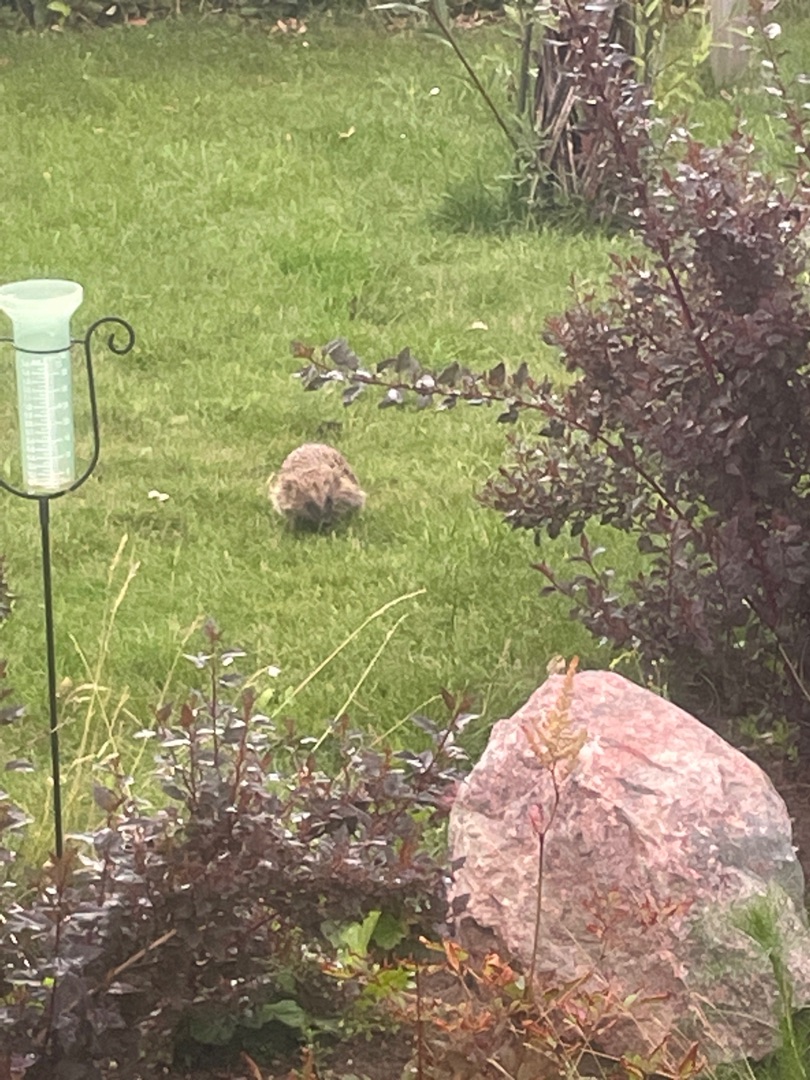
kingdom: Animalia
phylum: Chordata
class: Mammalia
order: Erinaceomorpha
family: Erinaceidae
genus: Erinaceus
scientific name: Erinaceus europaeus
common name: Pindsvin
